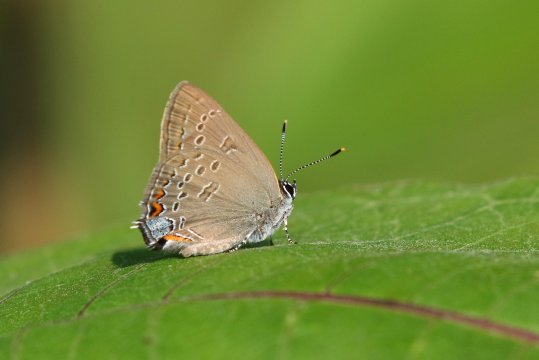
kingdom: Animalia
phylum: Arthropoda
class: Insecta
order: Lepidoptera
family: Lycaenidae
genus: Satyrium
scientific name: Satyrium edwardsii
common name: Edwards' Hairstreak
